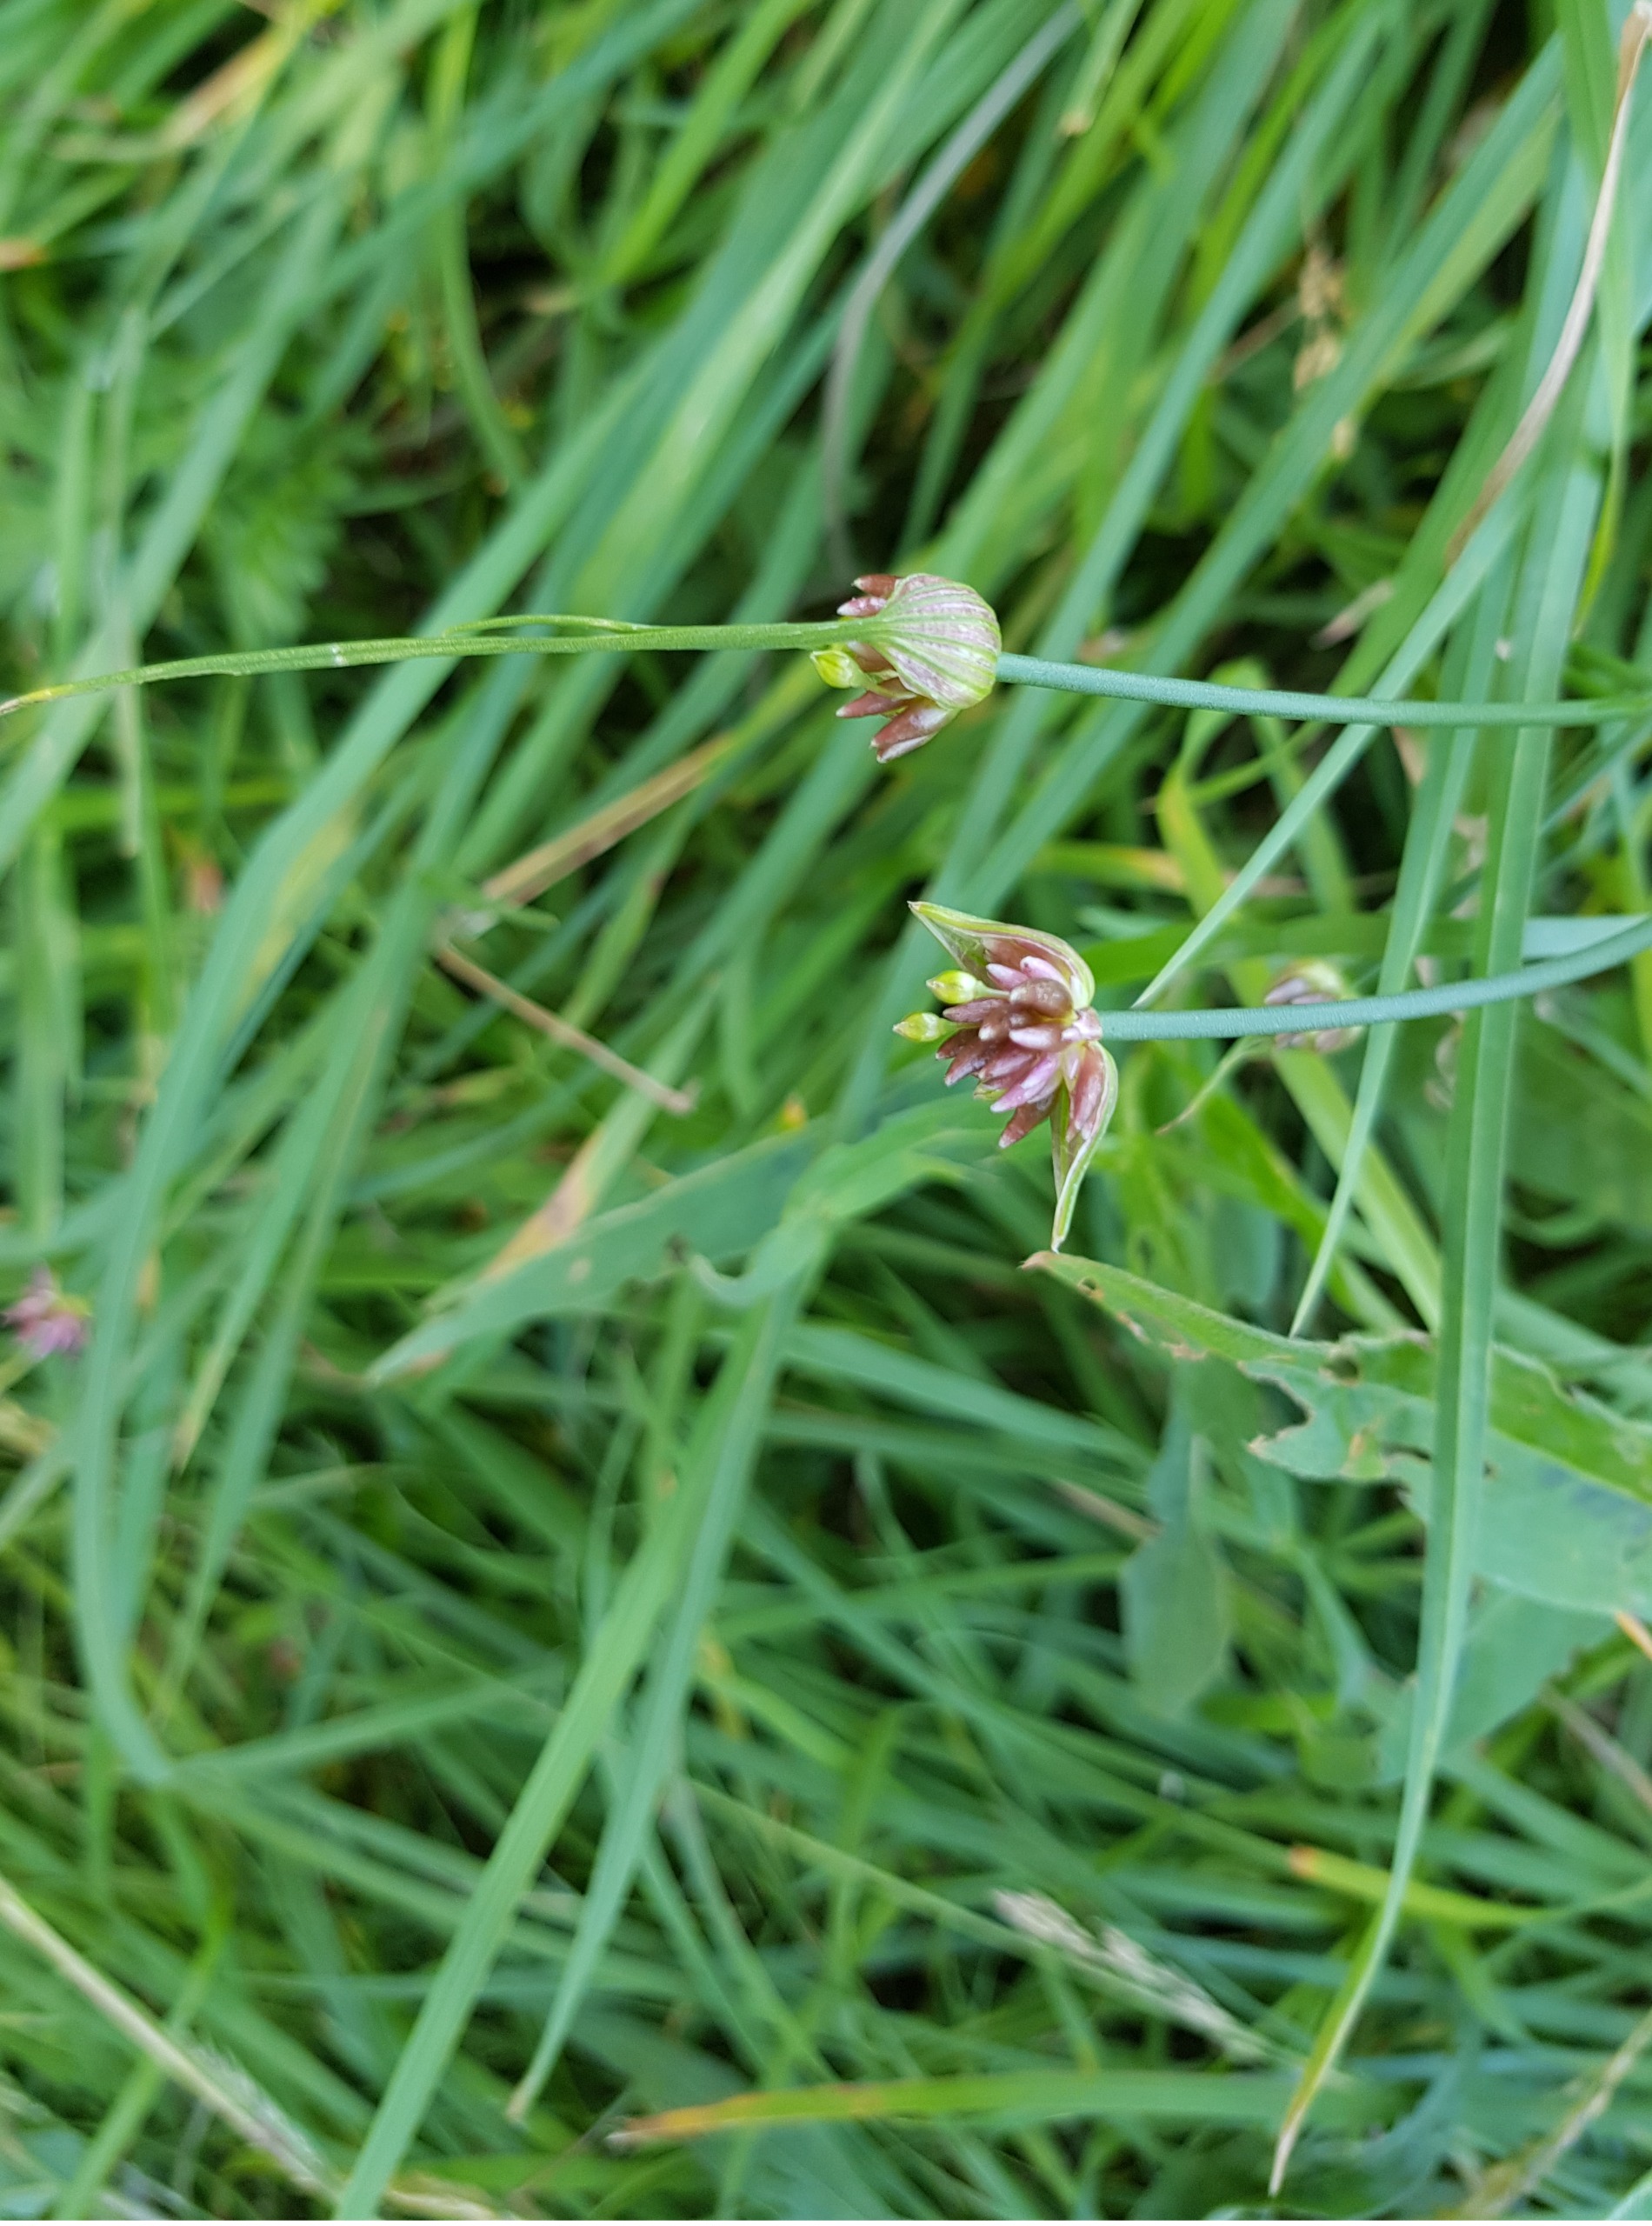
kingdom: Plantae
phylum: Tracheophyta
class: Liliopsida
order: Asparagales
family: Amaryllidaceae
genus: Allium
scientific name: Allium oleraceum
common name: Vild løg
